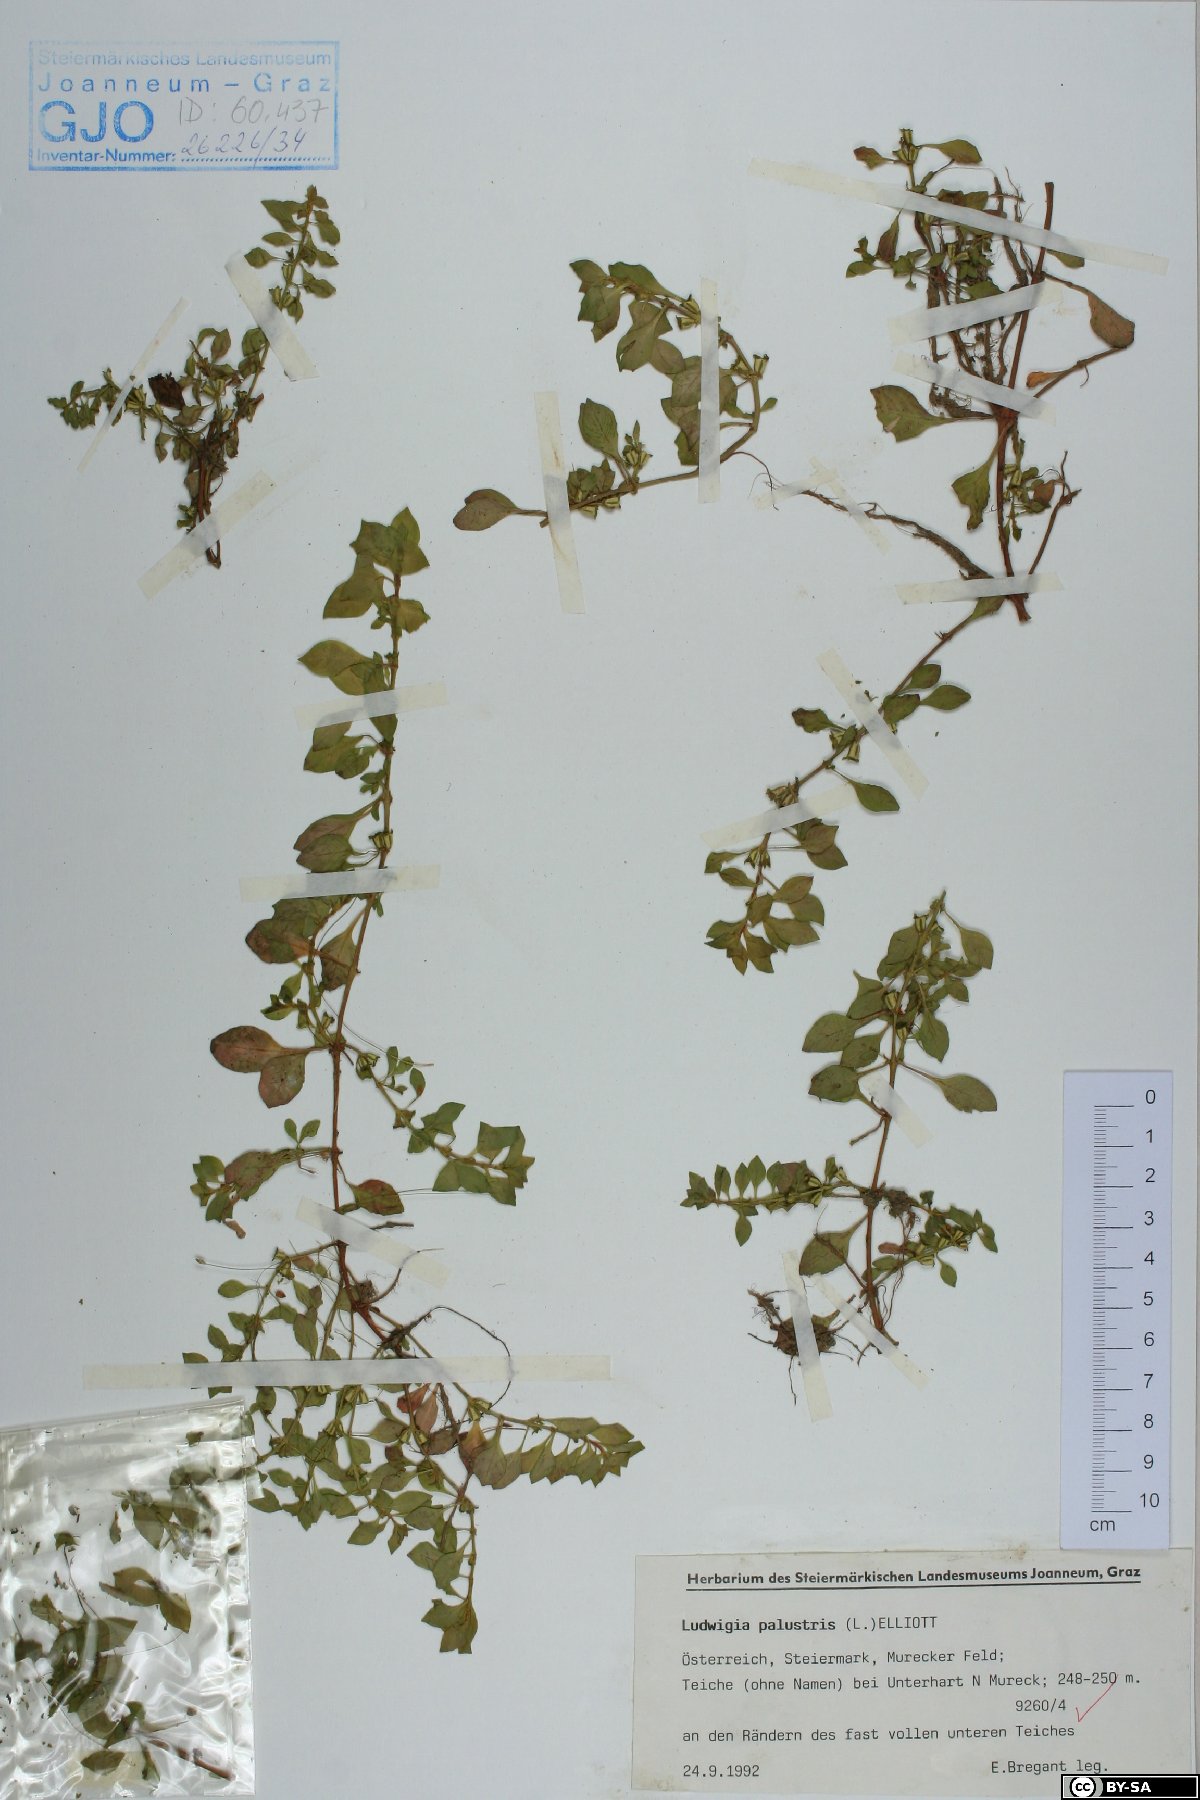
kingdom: Plantae
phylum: Tracheophyta
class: Magnoliopsida
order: Myrtales
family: Onagraceae
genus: Ludwigia
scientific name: Ludwigia palustris
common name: Hampshire-purslane
